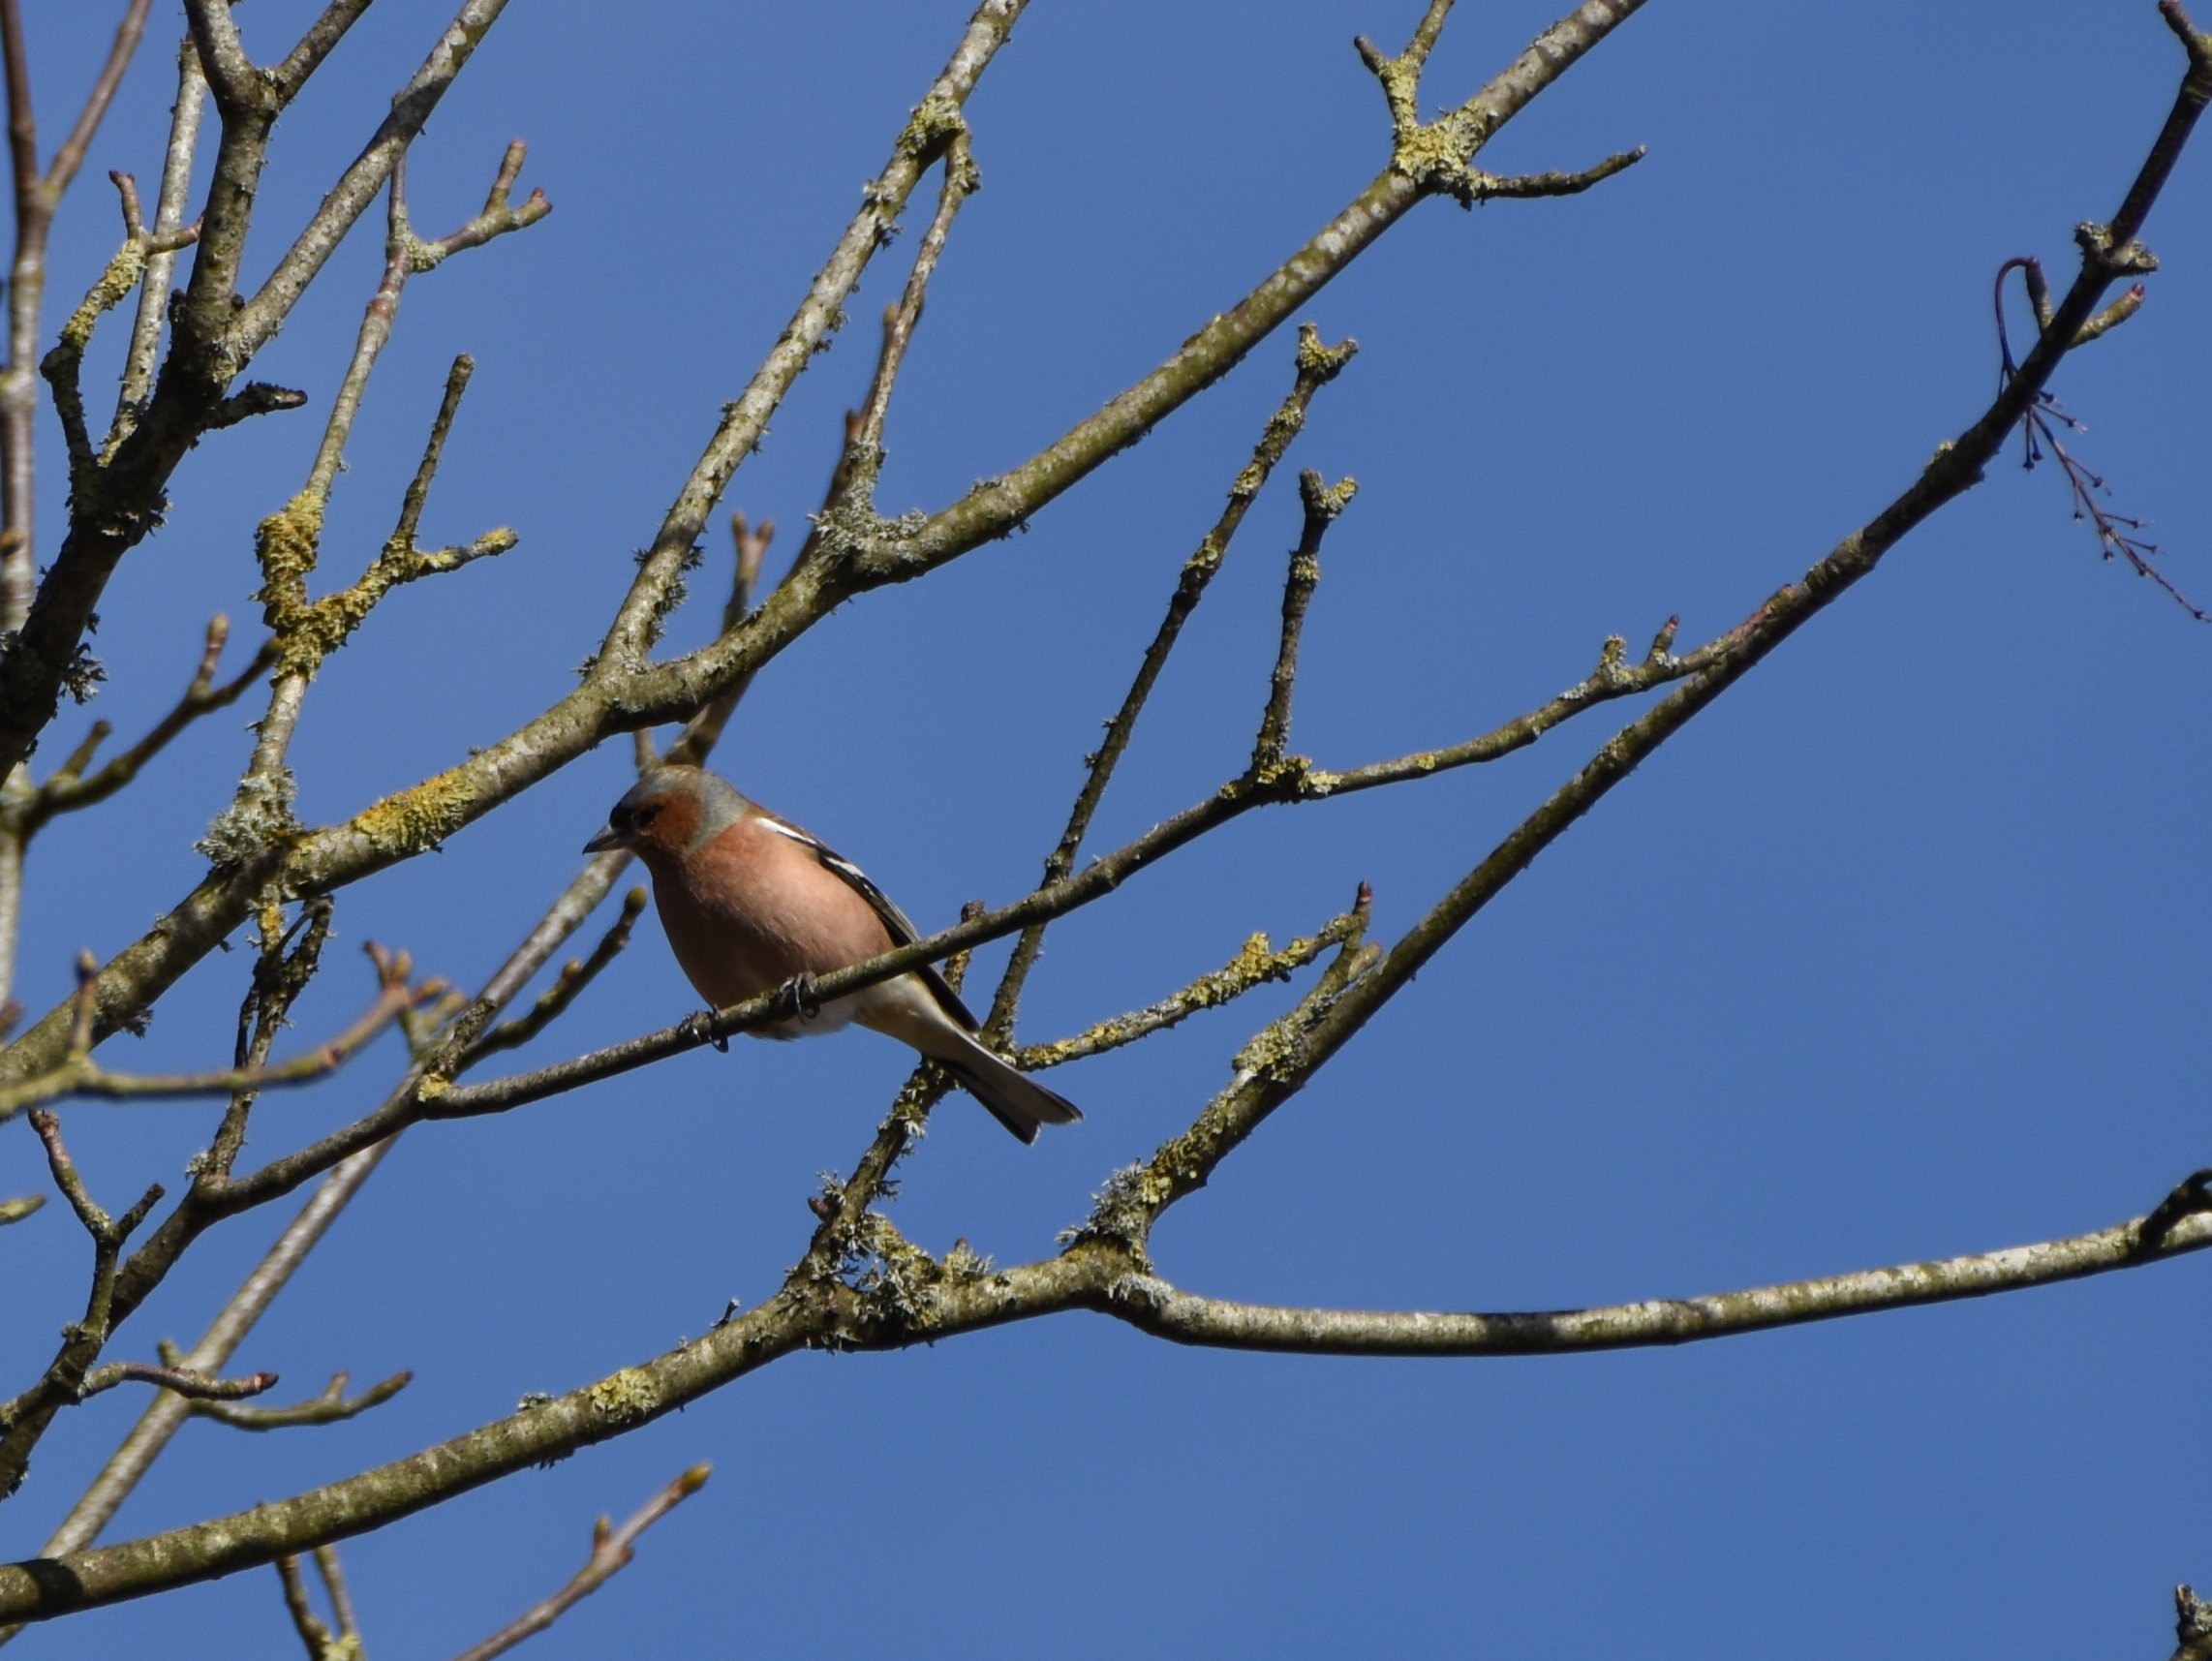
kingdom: Animalia
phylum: Chordata
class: Aves
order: Passeriformes
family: Fringillidae
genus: Fringilla
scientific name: Fringilla coelebs
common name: Bogfinke
